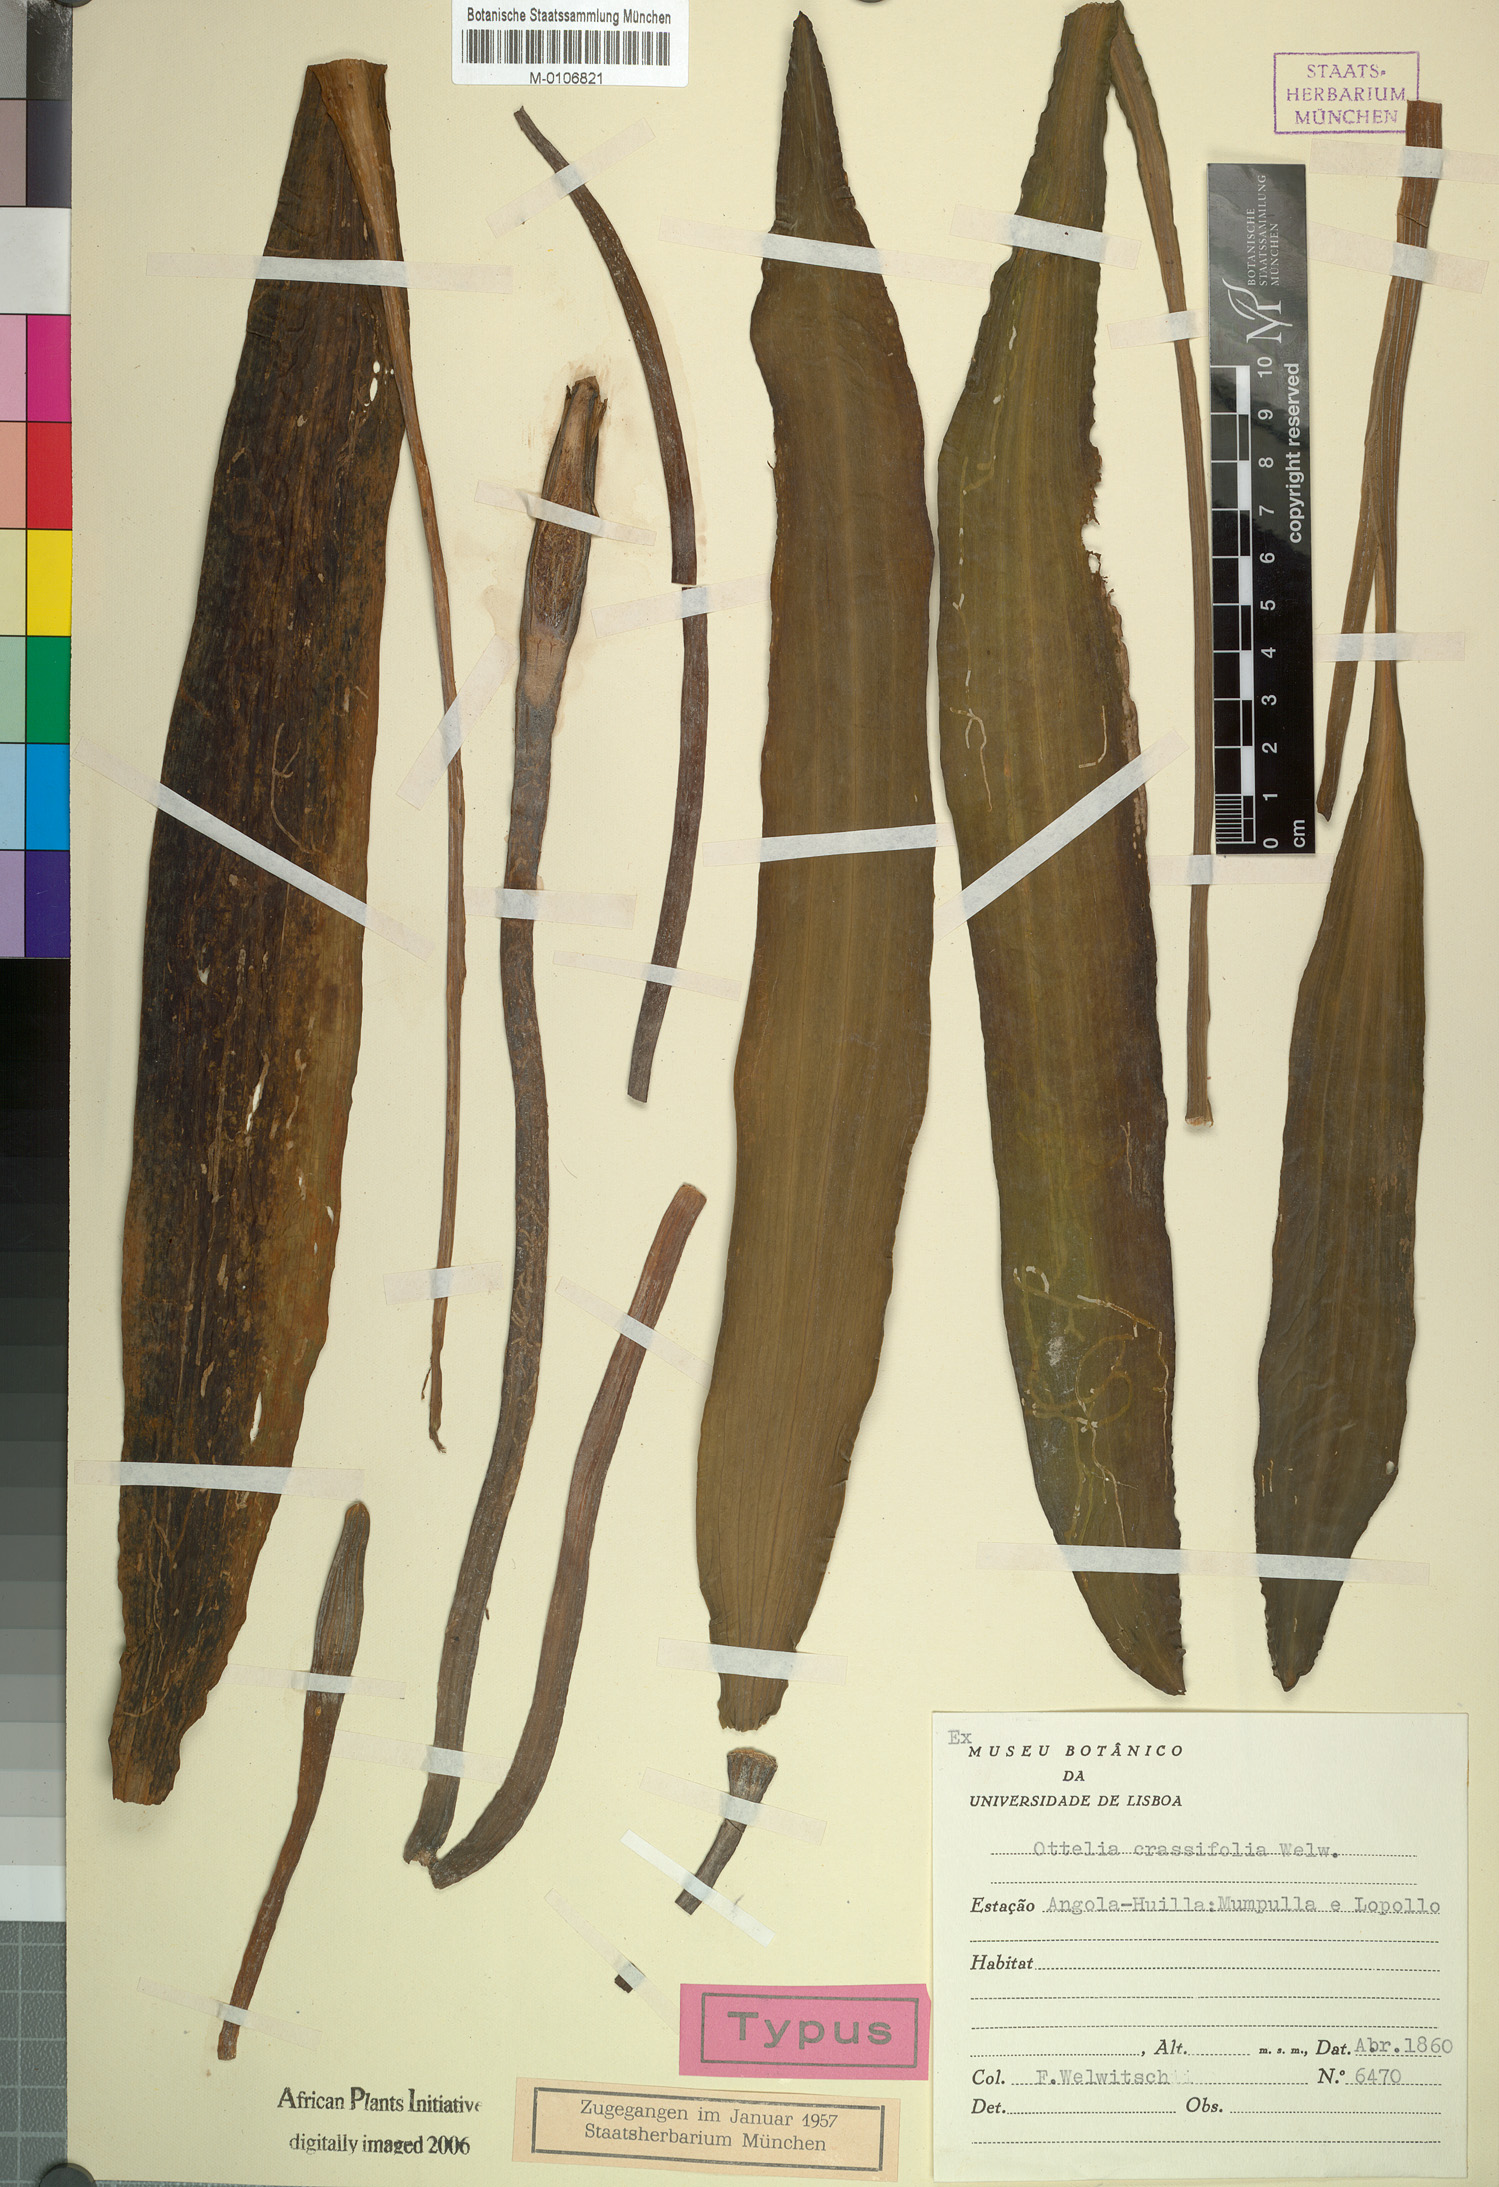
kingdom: Plantae
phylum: Tracheophyta
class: Liliopsida
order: Alismatales
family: Hydrocharitaceae
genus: Ottelia
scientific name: Ottelia ulvifolia
